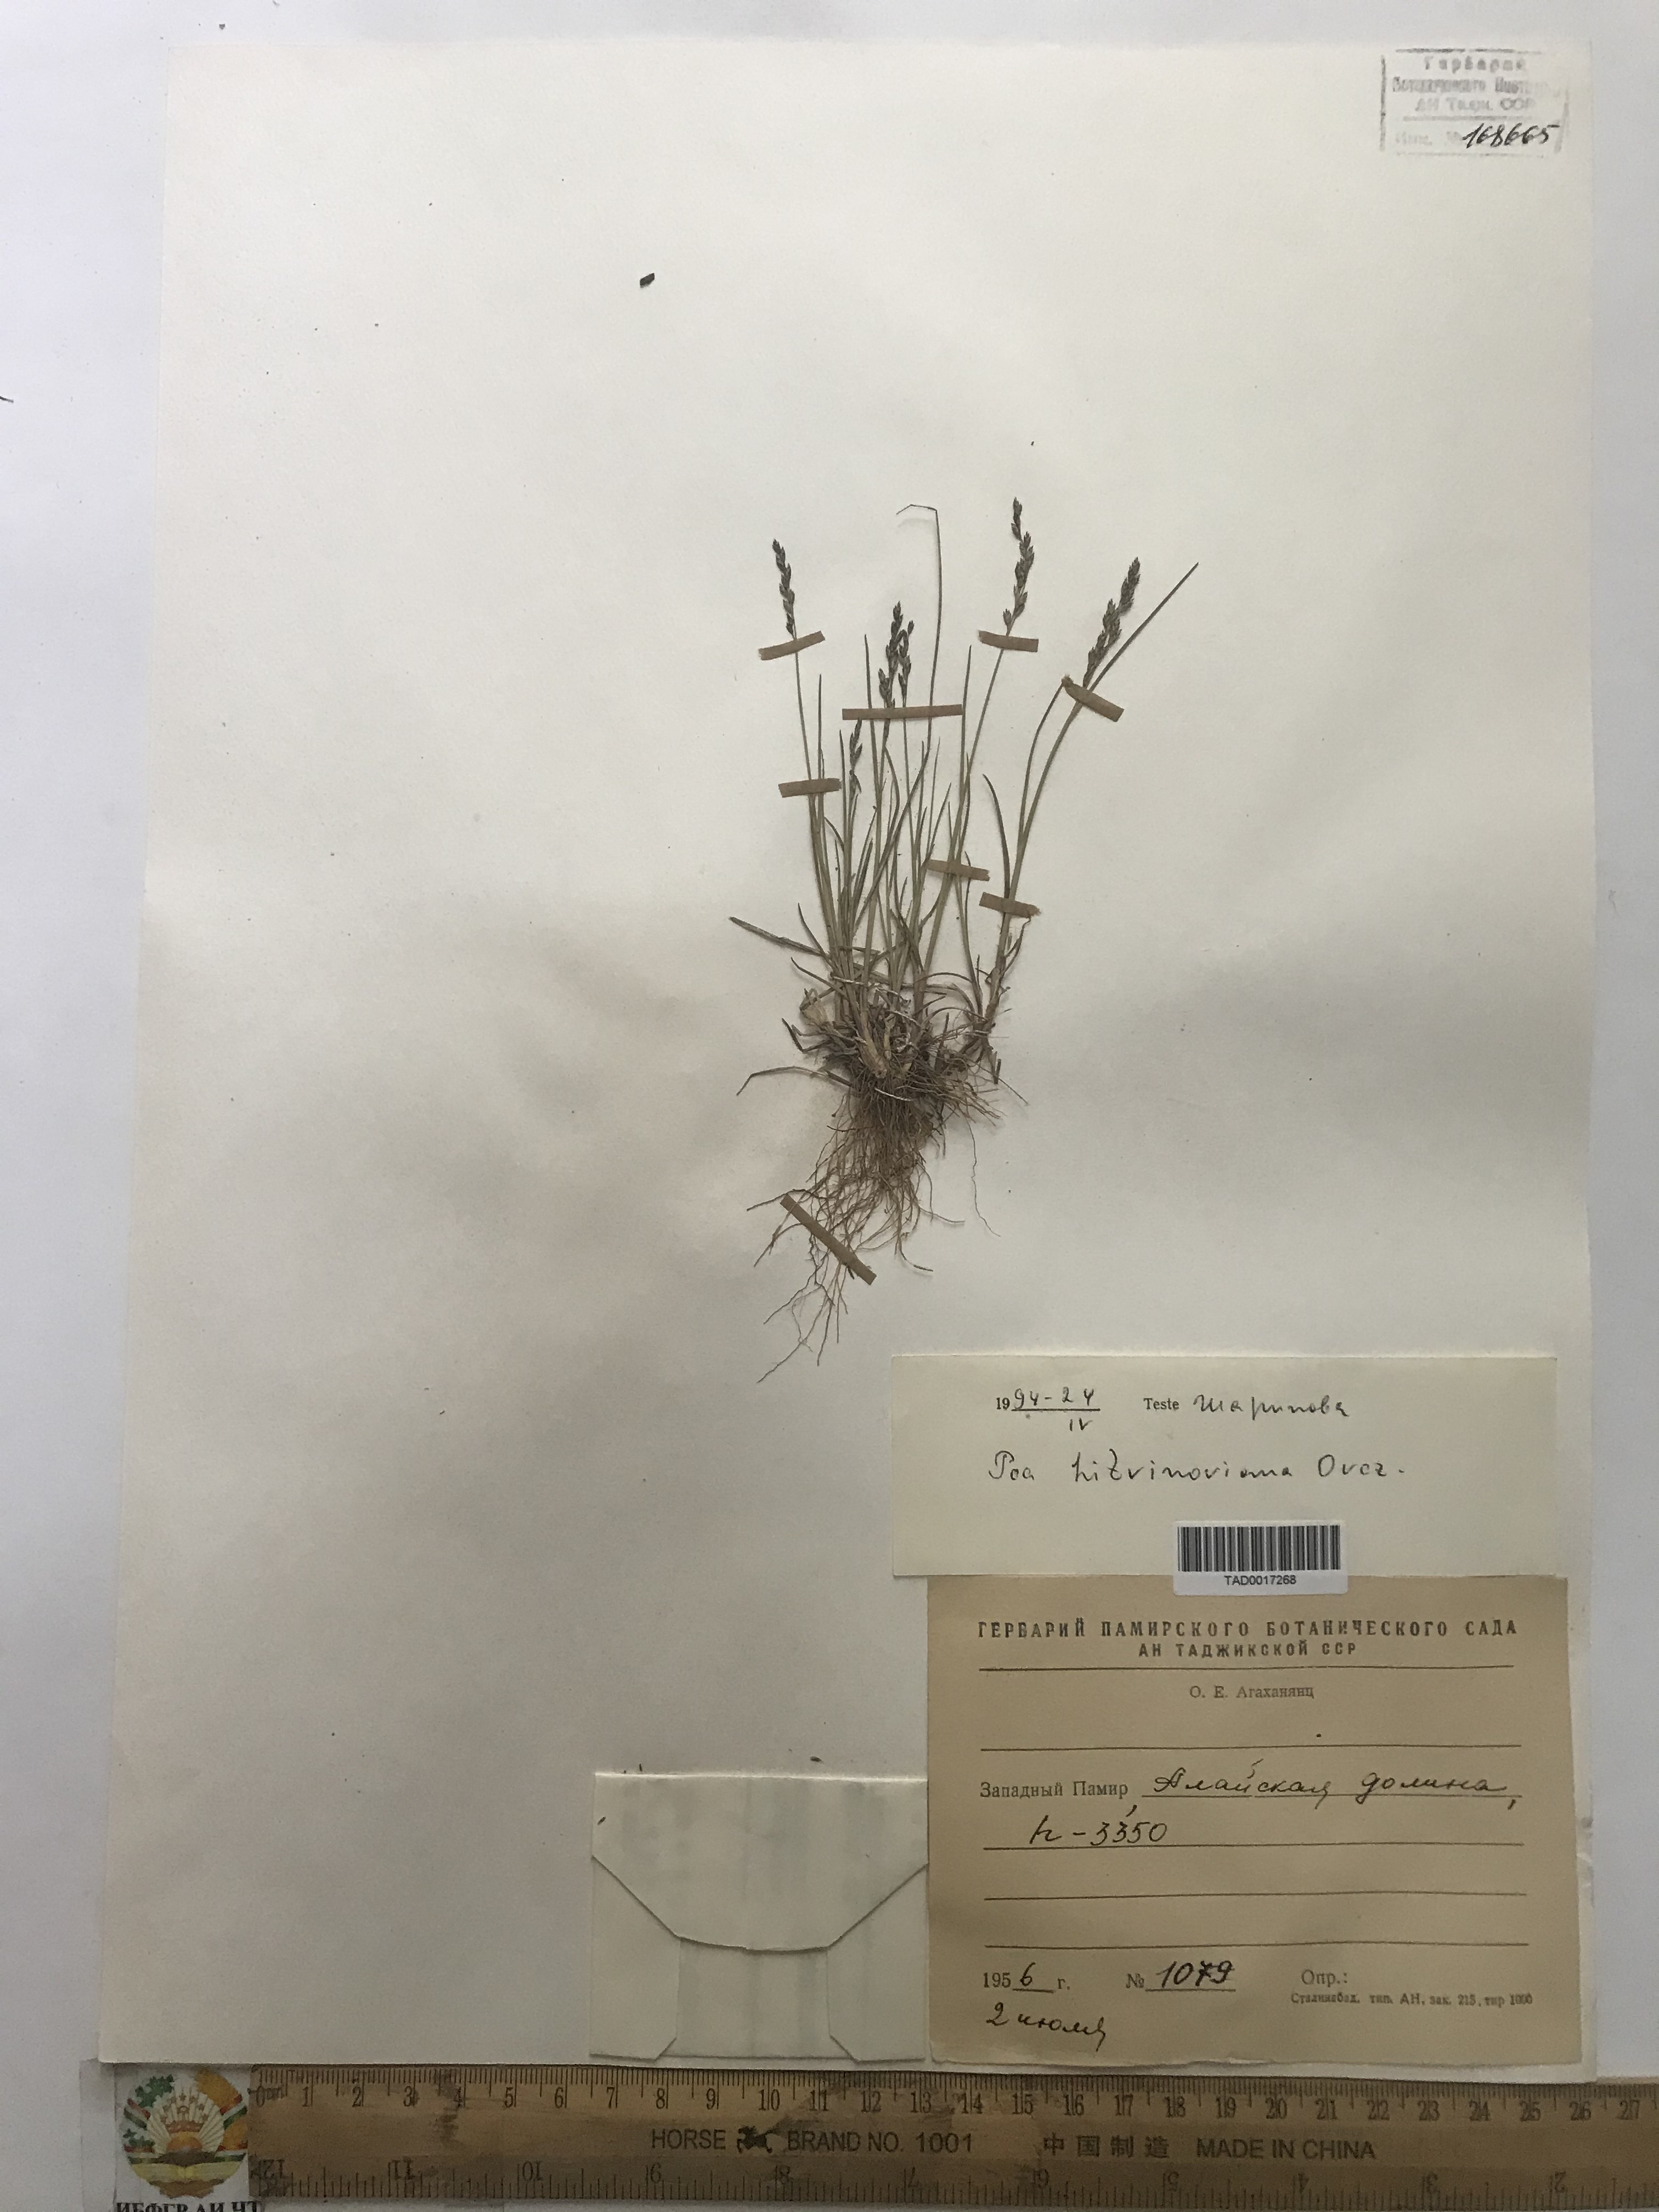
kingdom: Plantae
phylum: Tracheophyta
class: Liliopsida
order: Poales
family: Poaceae
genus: Poa
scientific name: Poa glauca
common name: Glaucous bluegrass
